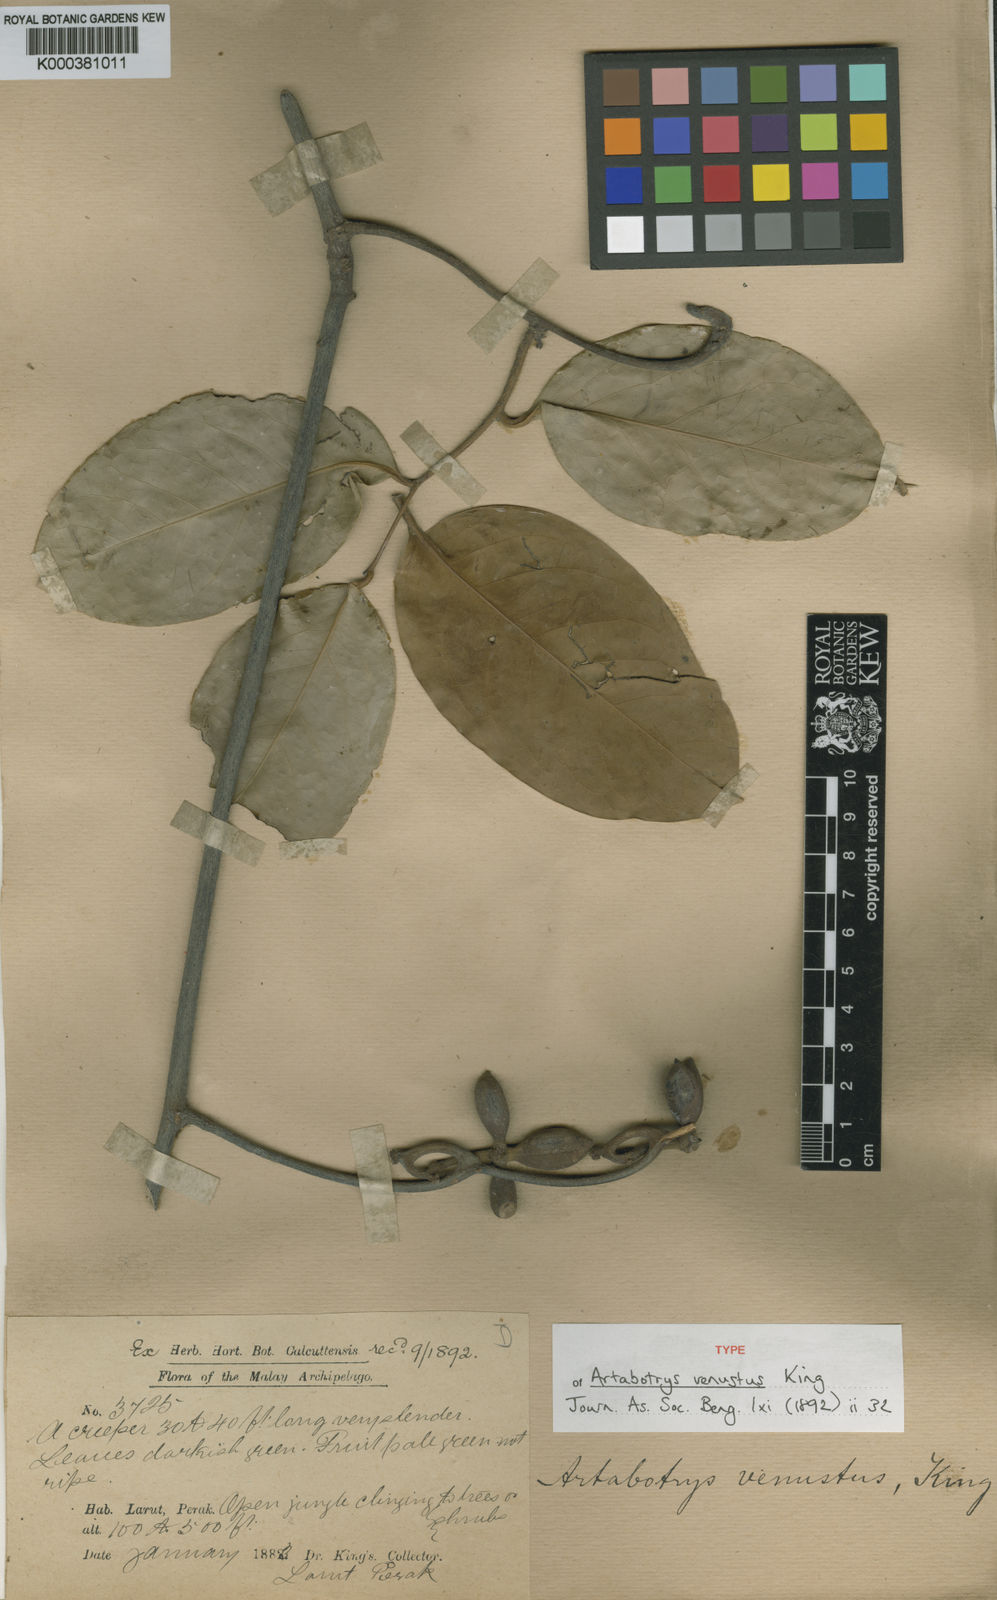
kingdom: Plantae
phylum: Tracheophyta
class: Magnoliopsida
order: Magnoliales
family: Annonaceae
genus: Artabotrys
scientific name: Artabotrys venustus
